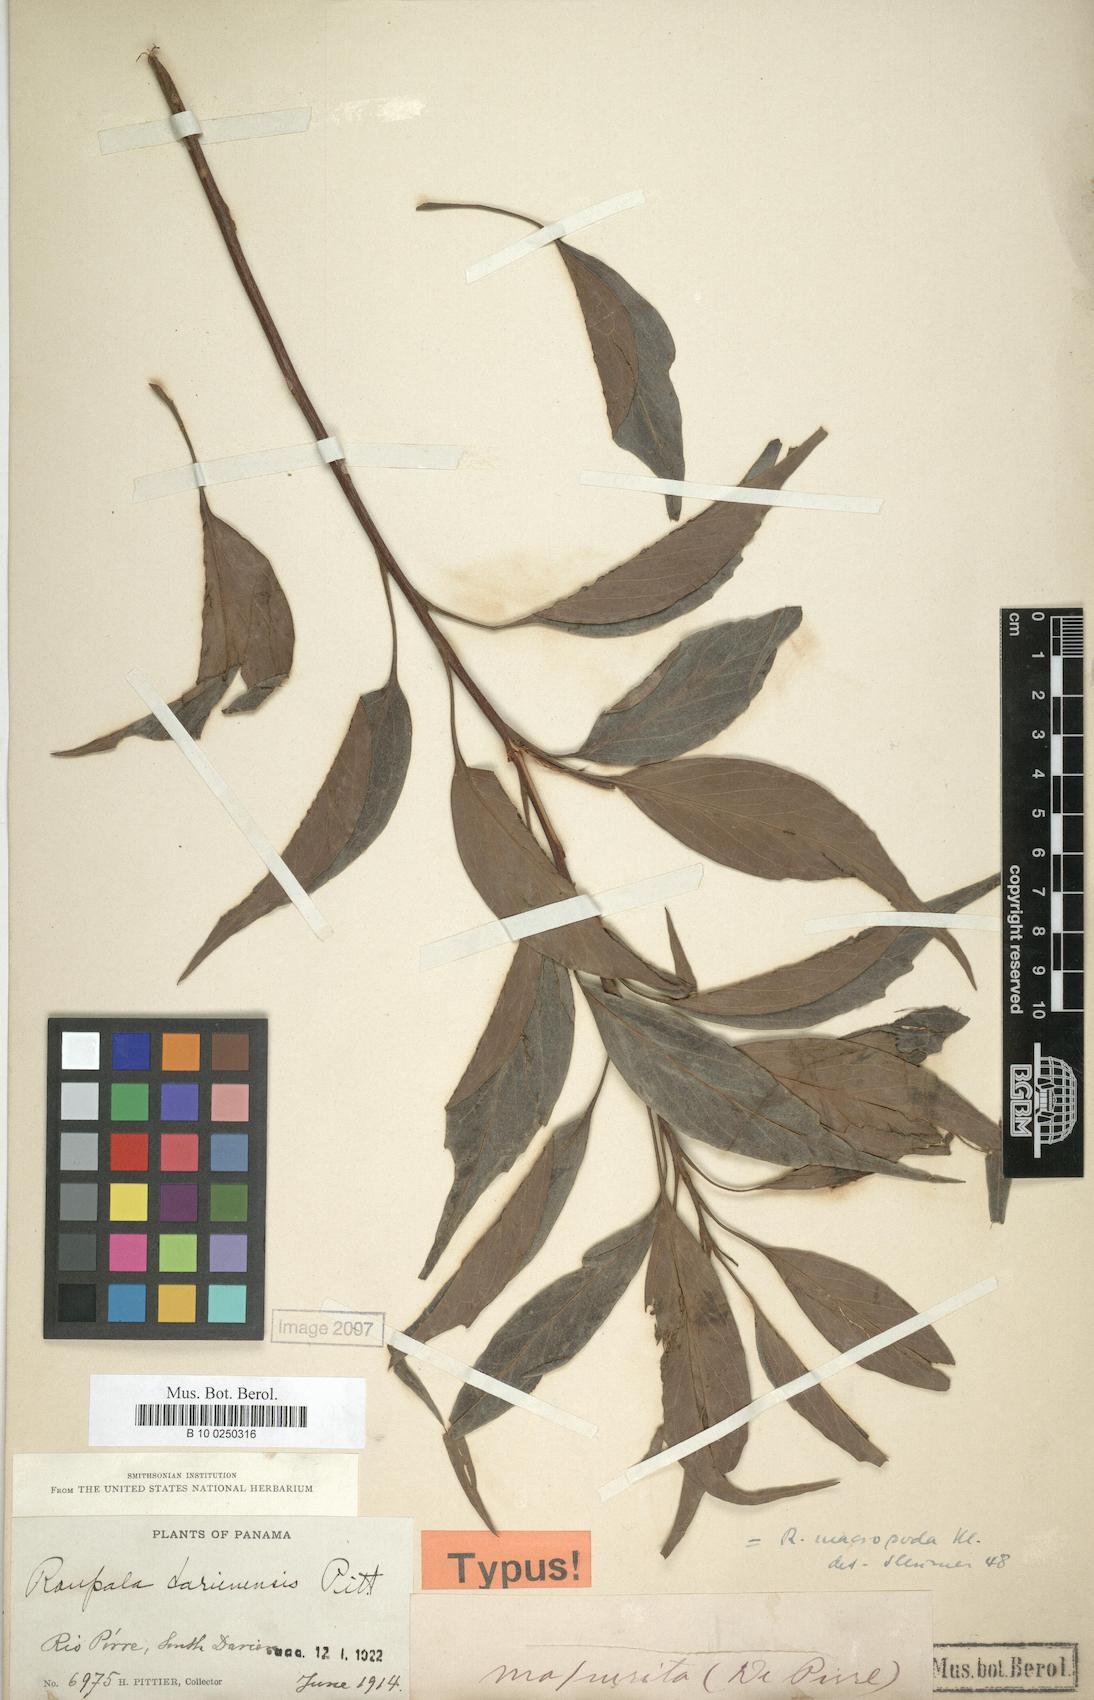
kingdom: Plantae
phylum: Tracheophyta
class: Magnoliopsida
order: Proteales
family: Proteaceae
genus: Roupala
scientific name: Roupala montana
